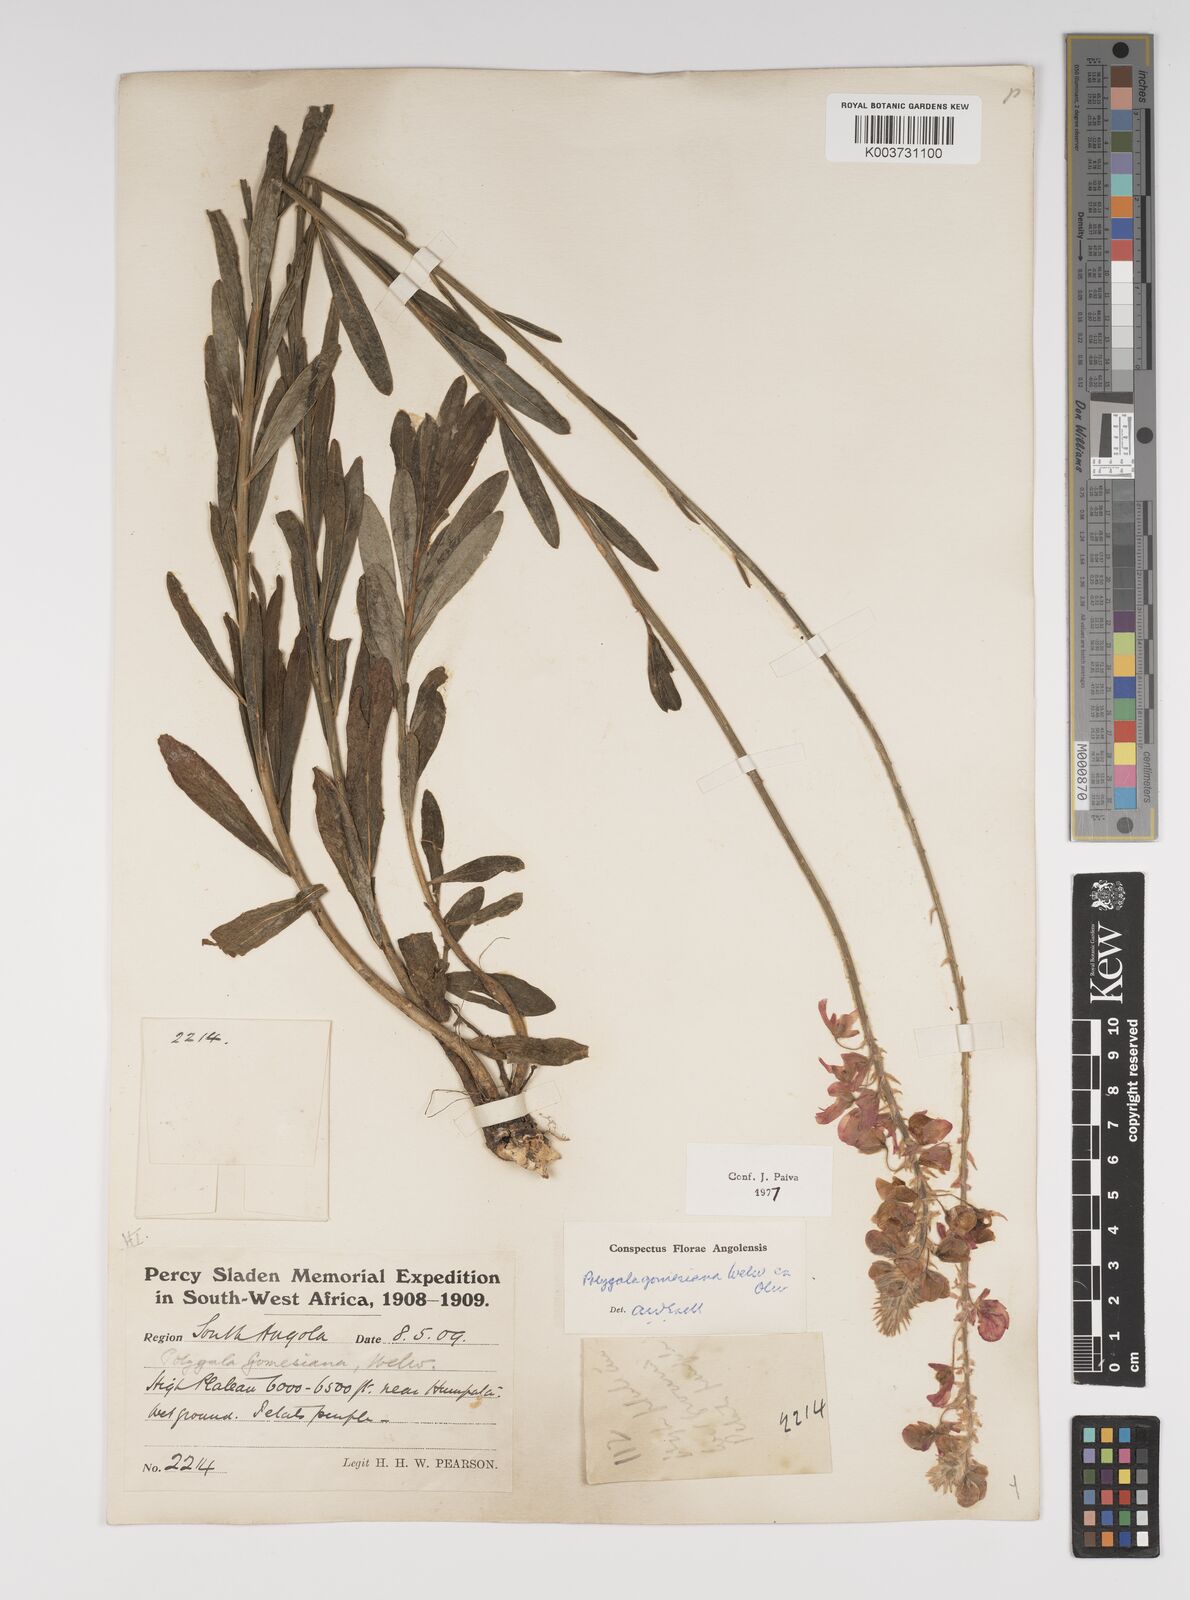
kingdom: Plantae
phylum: Tracheophyta
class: Magnoliopsida
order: Fabales
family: Polygalaceae
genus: Polygala
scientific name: Polygala gomesiana
